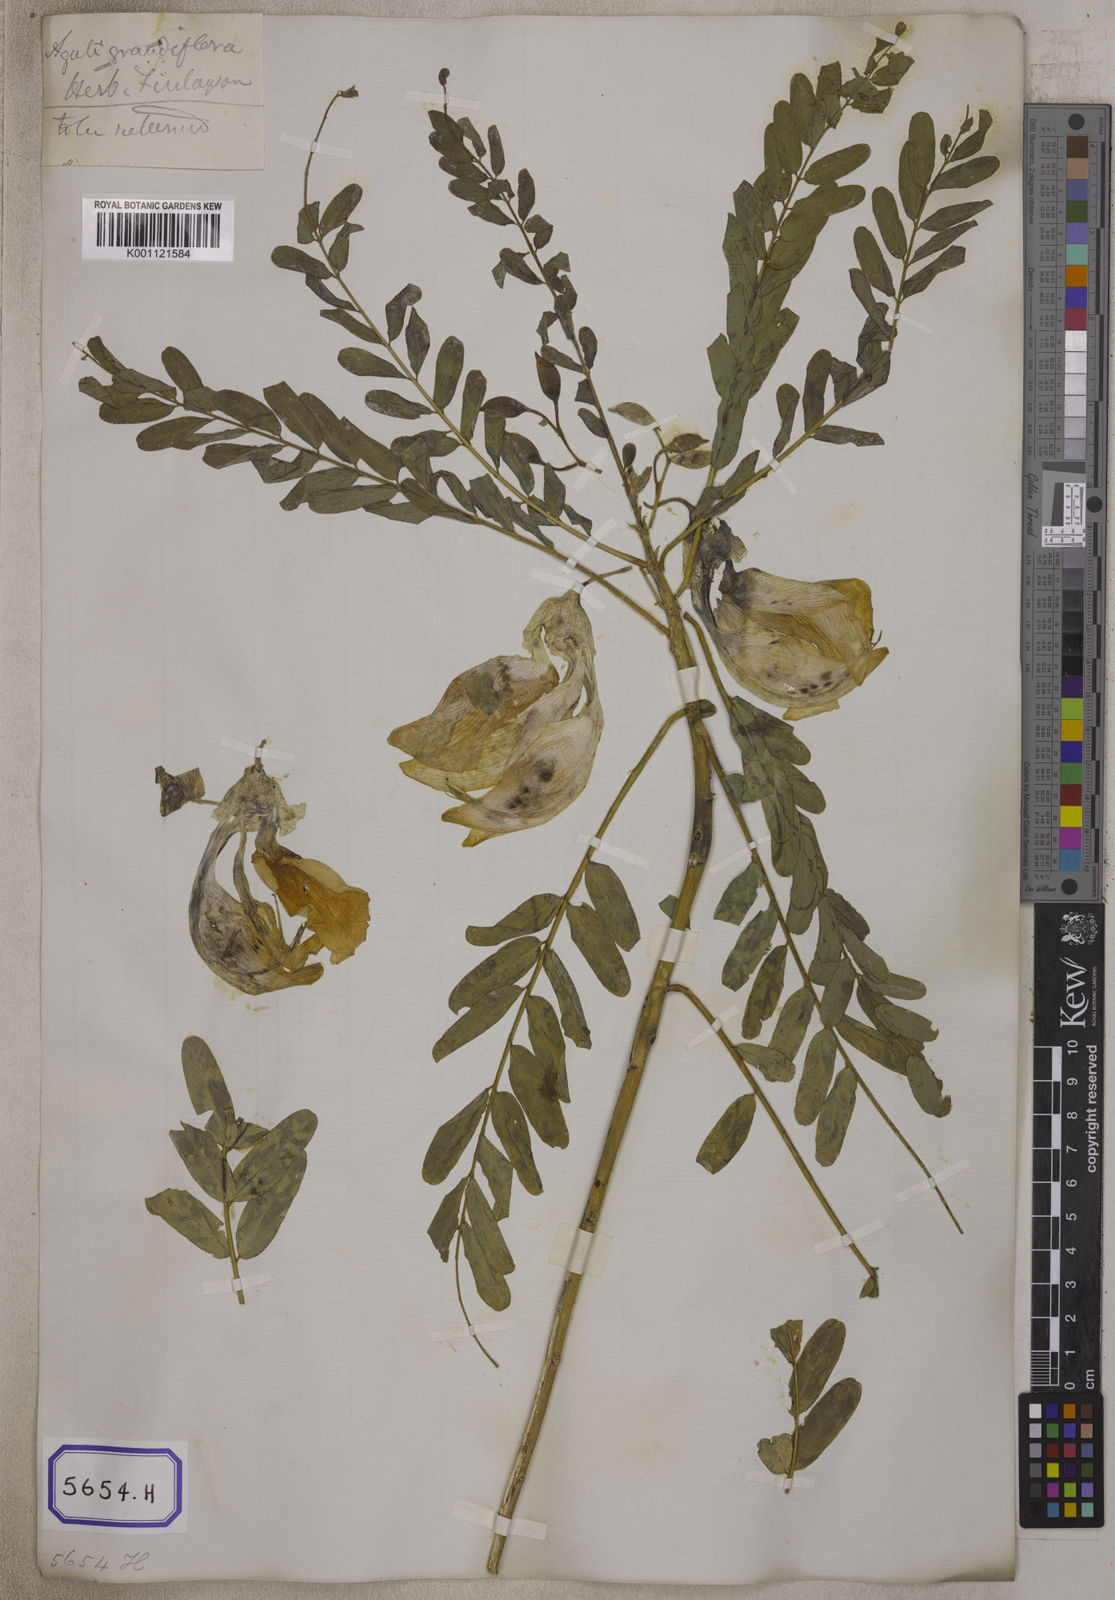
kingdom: Plantae
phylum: Tracheophyta
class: Magnoliopsida
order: Fabales
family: Fabaceae
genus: Sesbania
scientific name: Sesbania grandiflora
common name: Vegetable-hummingbird
